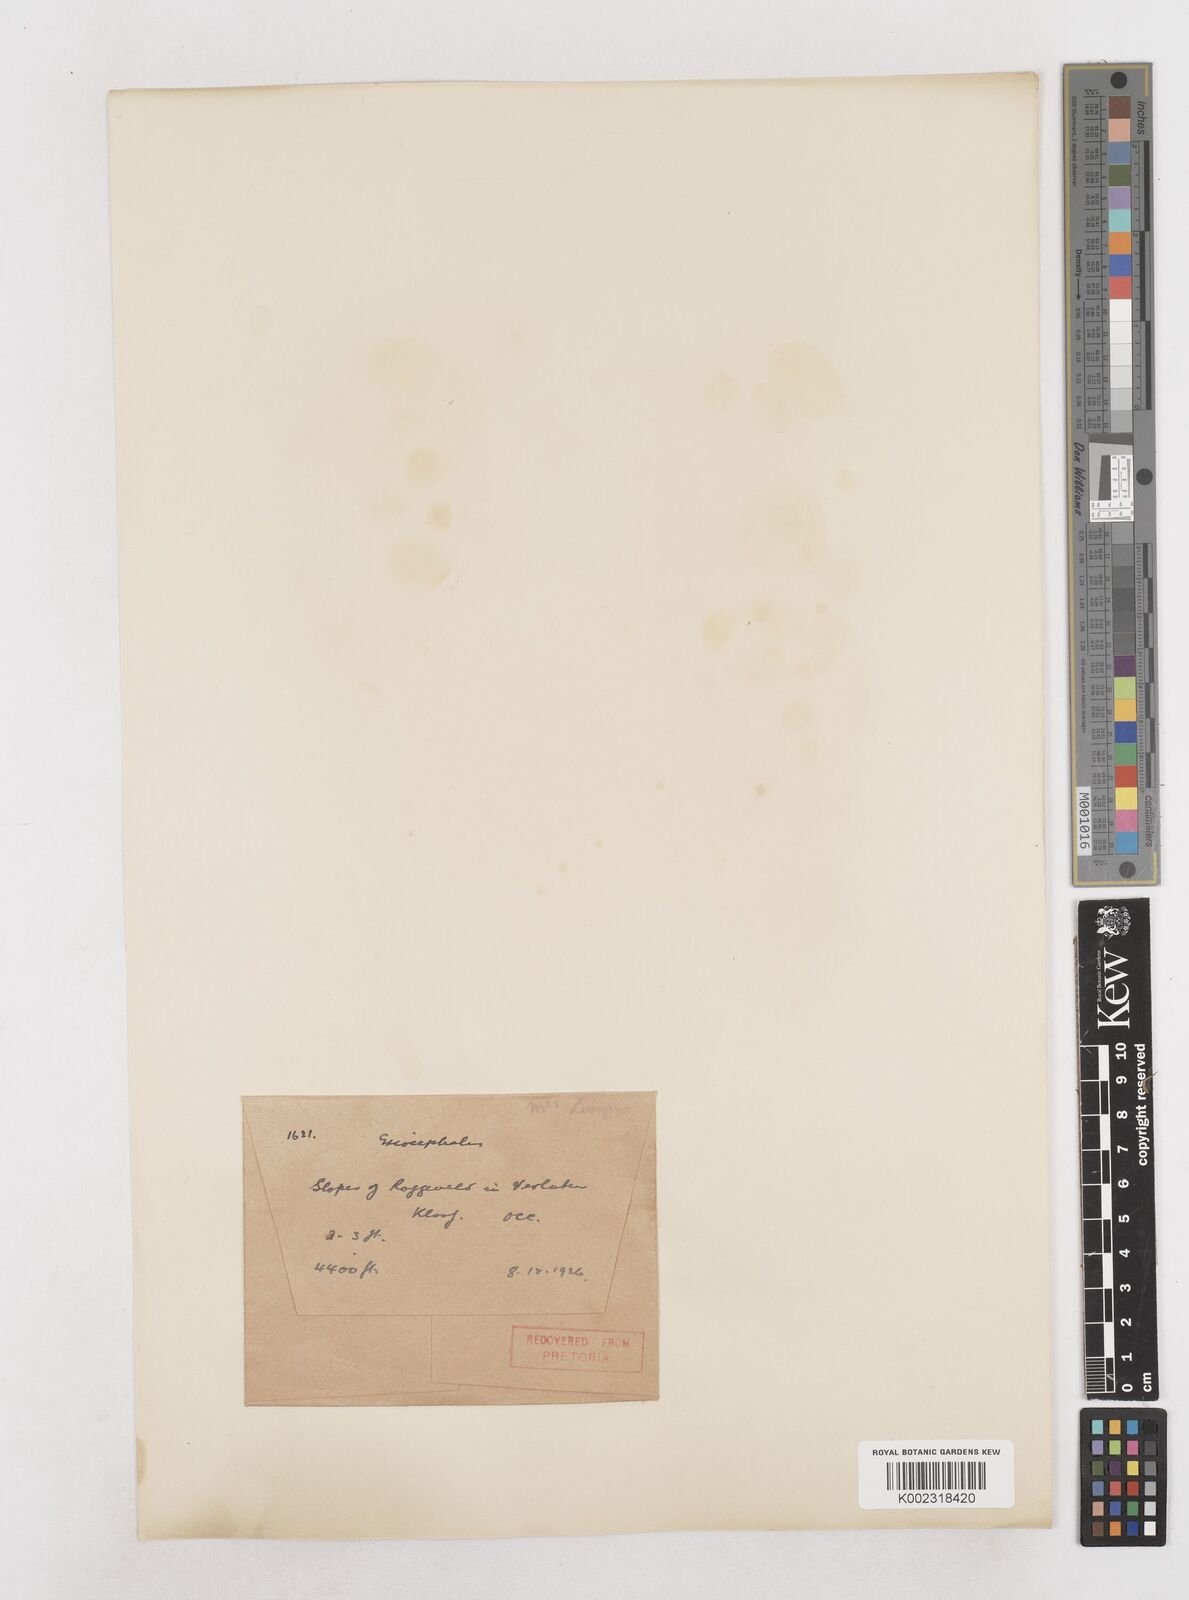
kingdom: Plantae
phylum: Tracheophyta
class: Magnoliopsida
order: Asterales
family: Asteraceae
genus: Eriocephalus
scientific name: Eriocephalus
